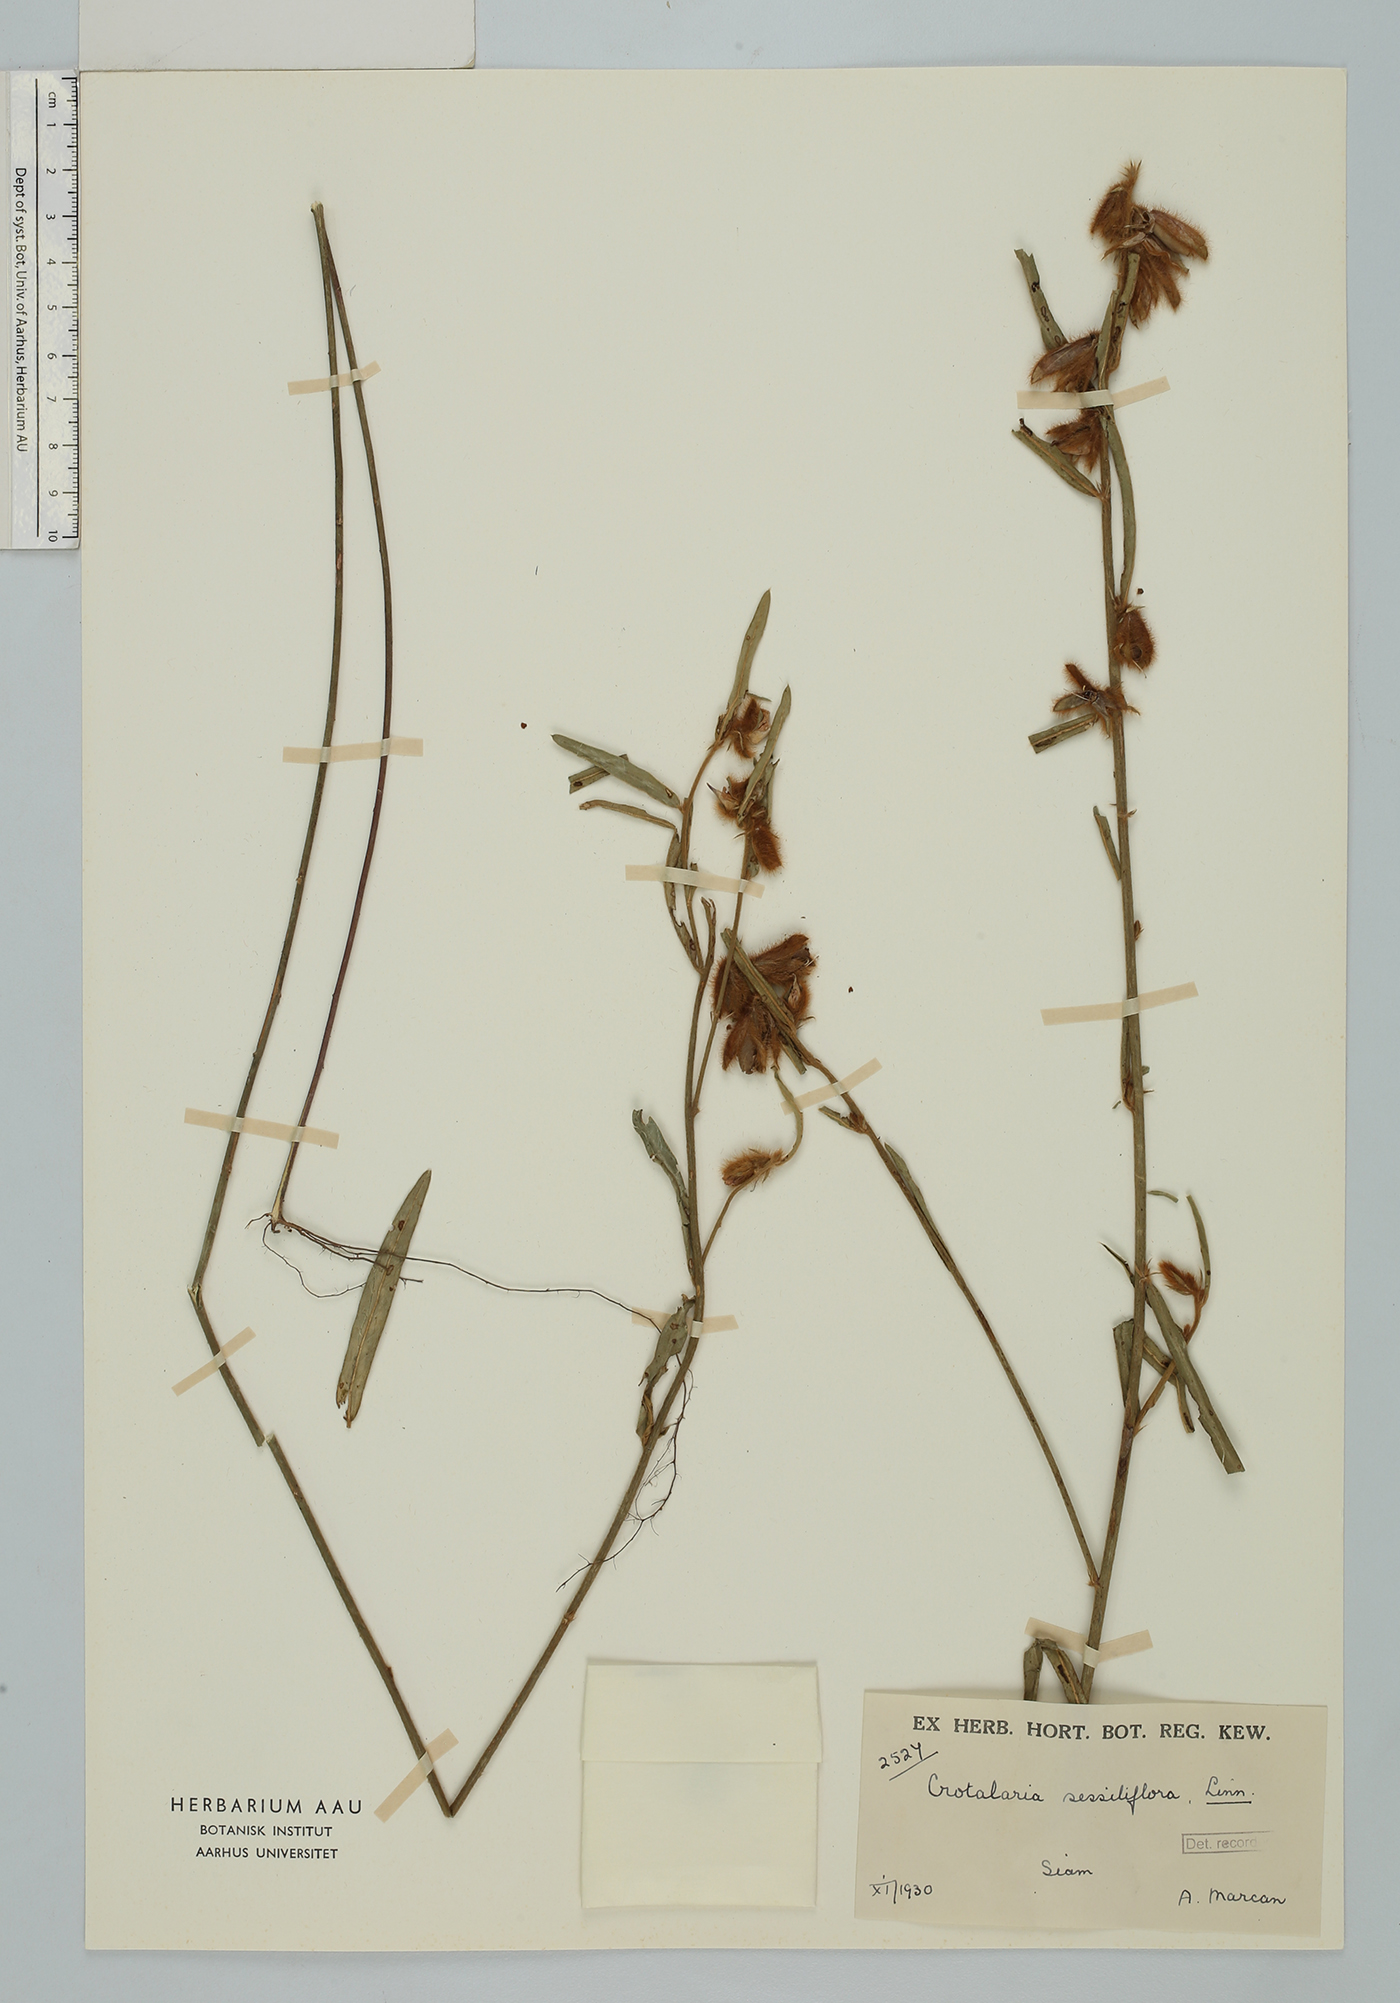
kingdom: Plantae
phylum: Tracheophyta
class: Magnoliopsida
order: Fabales
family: Fabaceae
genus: Crotalaria
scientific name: Crotalaria sessiliflora
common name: Rattlebox
